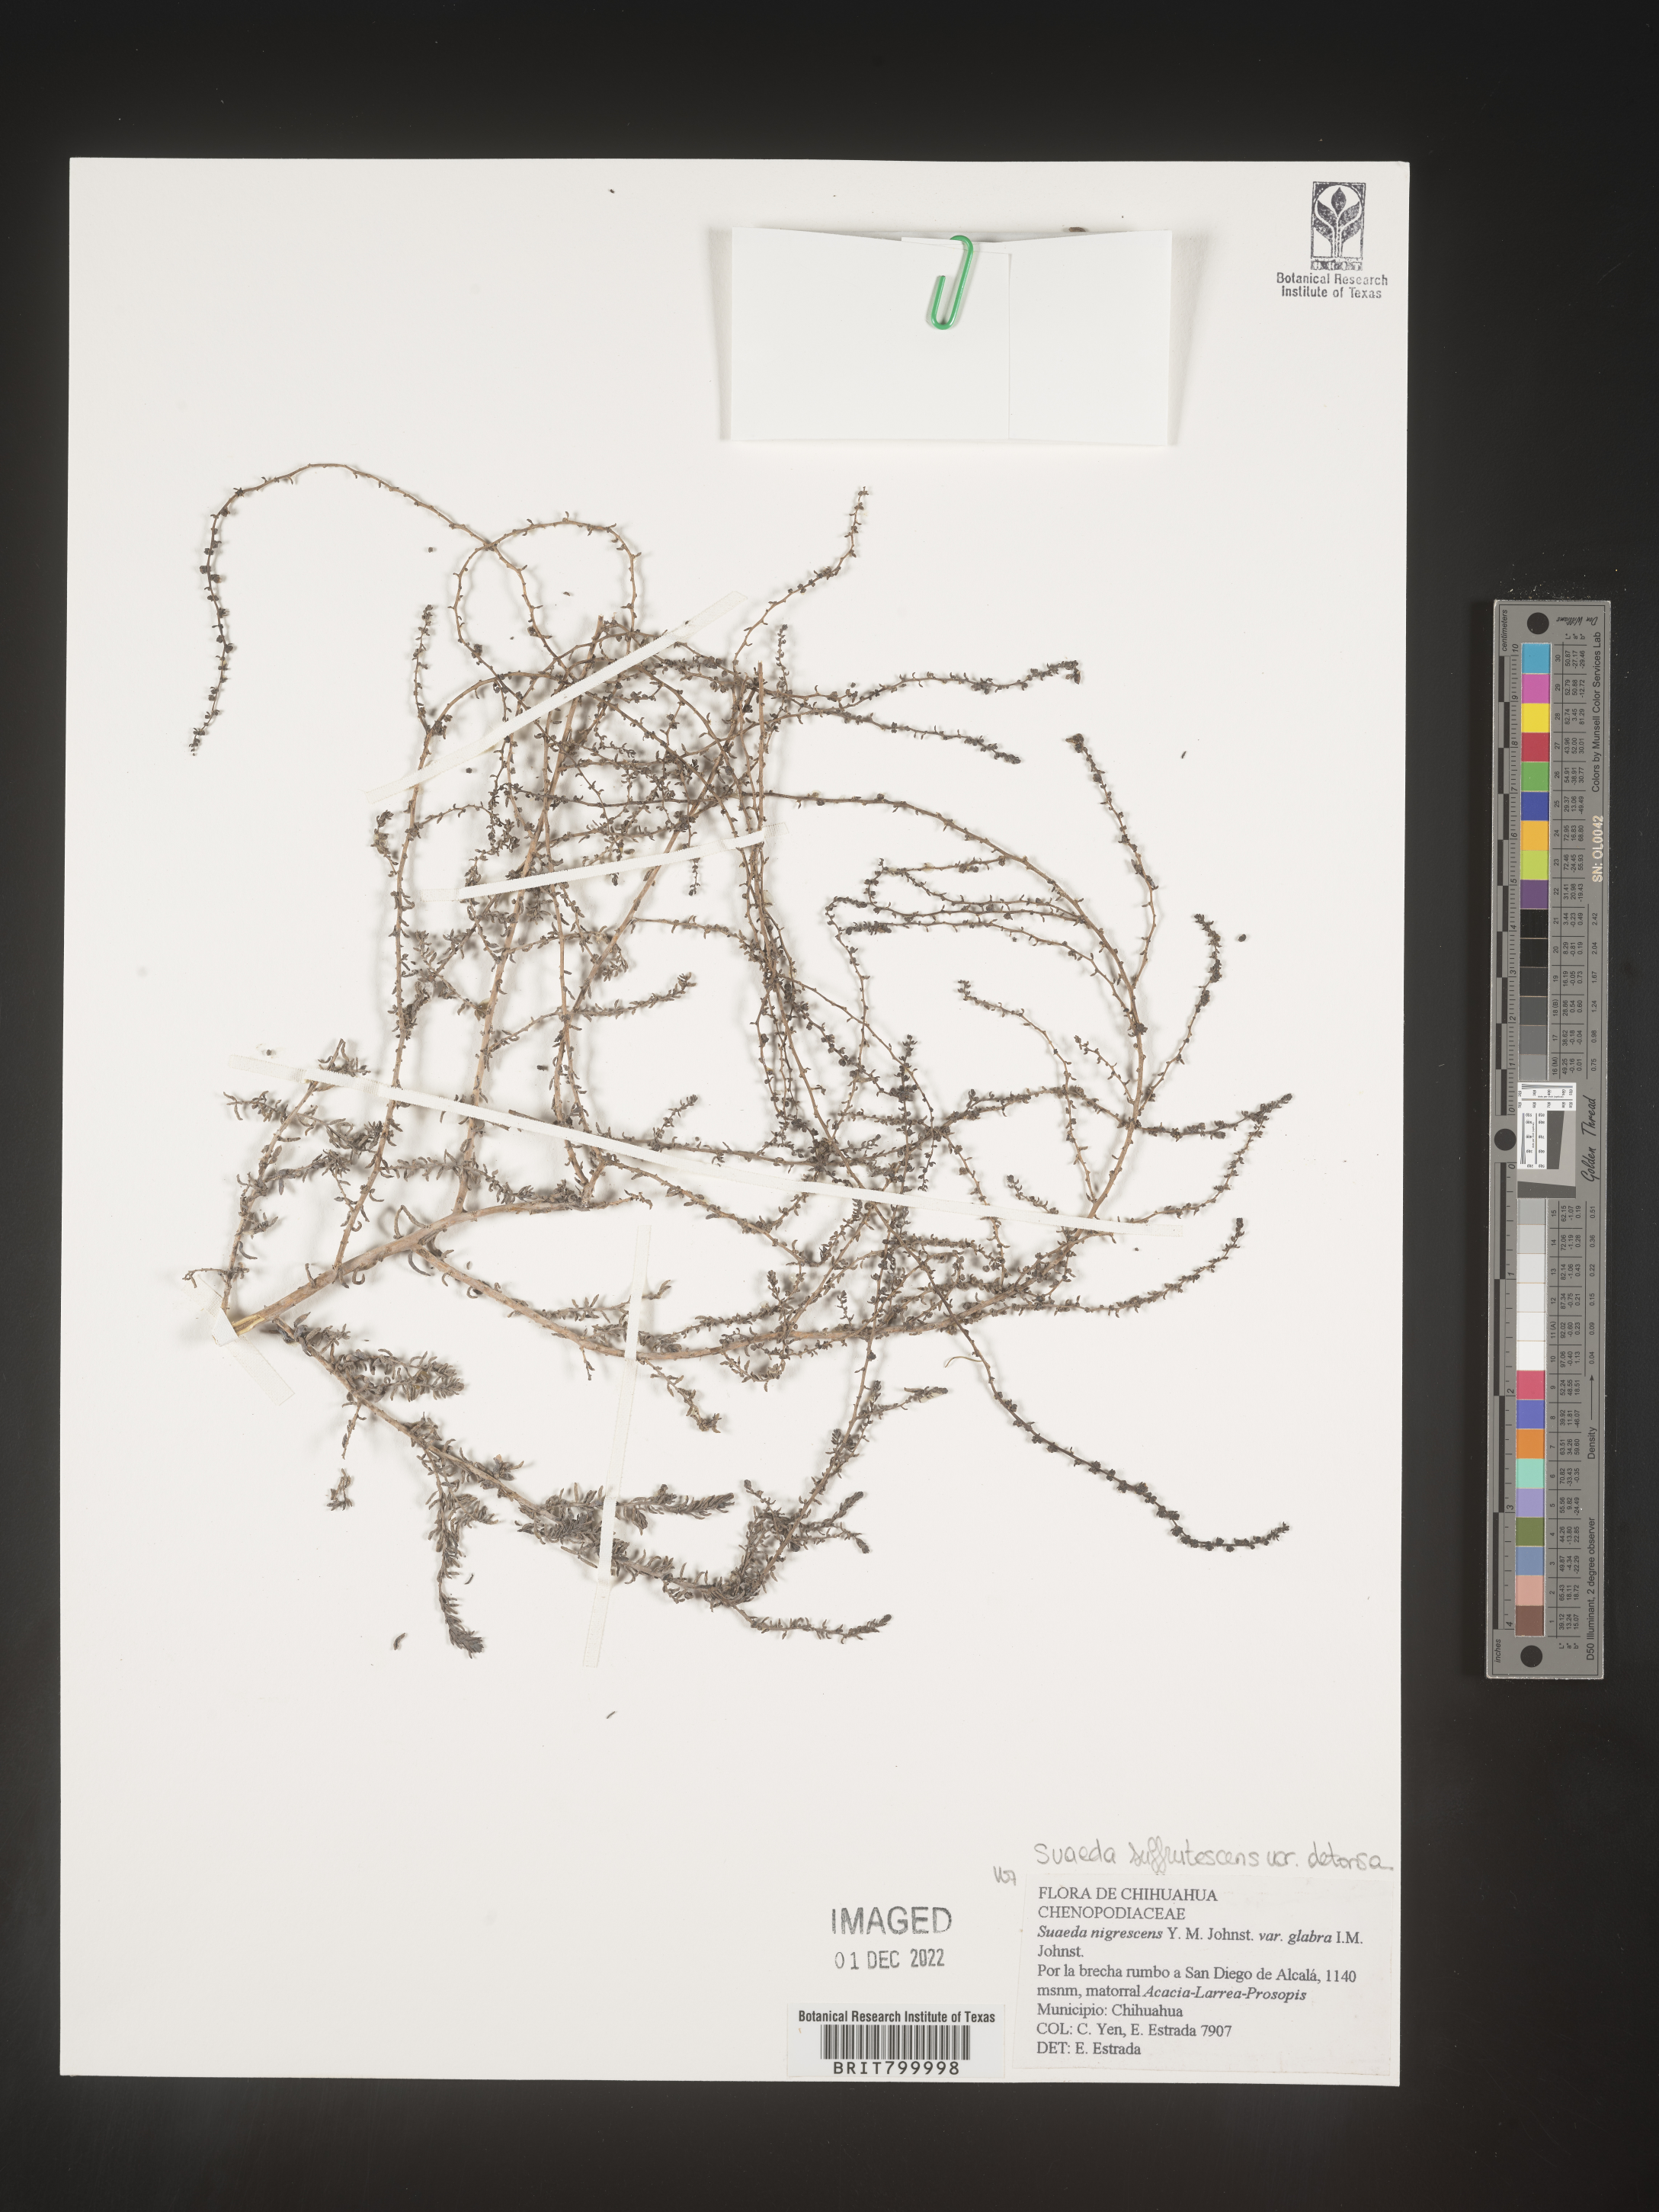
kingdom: Plantae
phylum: Tracheophyta
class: Magnoliopsida
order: Caryophyllales
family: Amaranthaceae
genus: Suaeda
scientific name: Suaeda
